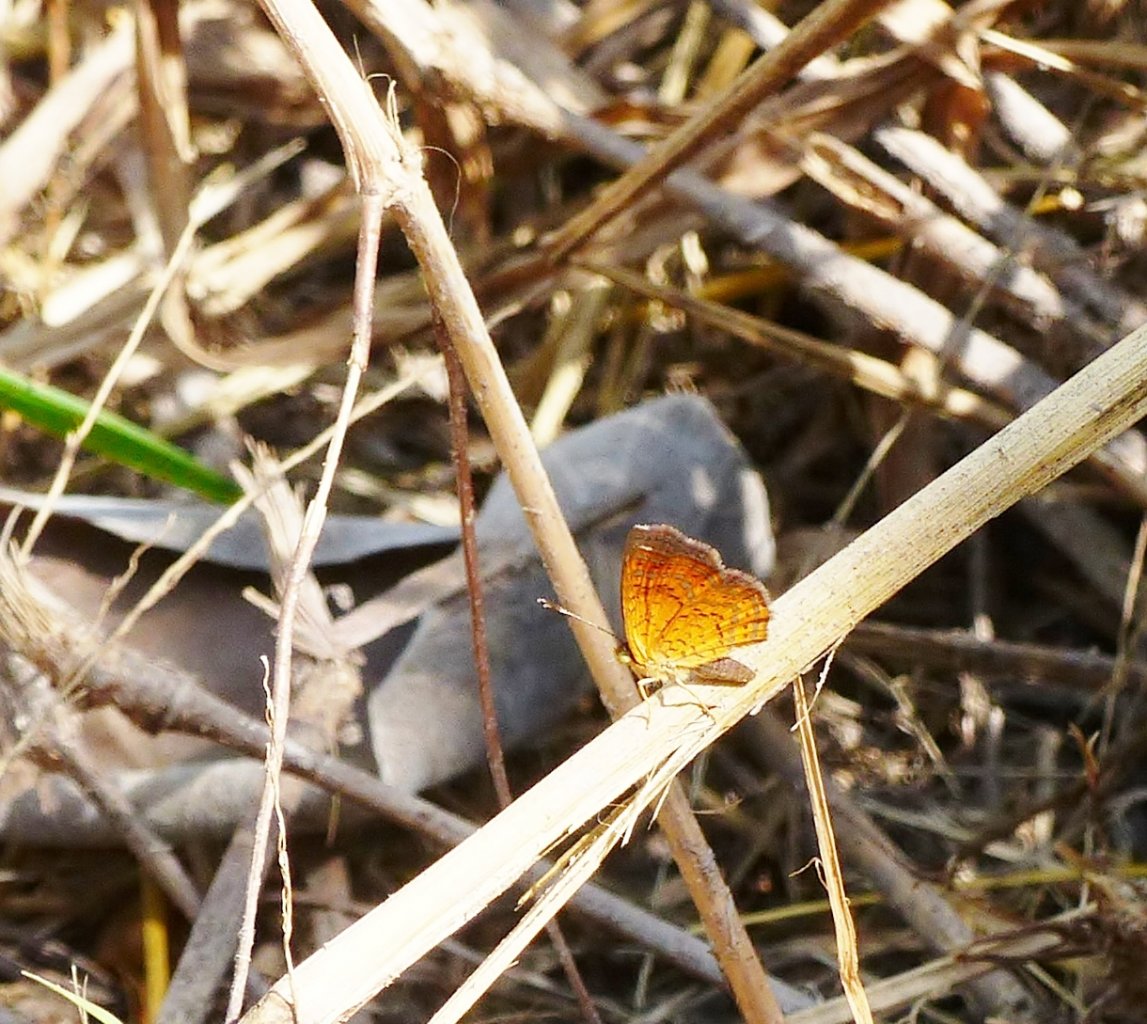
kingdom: Animalia
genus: Calephelis
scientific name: Calephelis nemesis
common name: Fatal Metalmark
